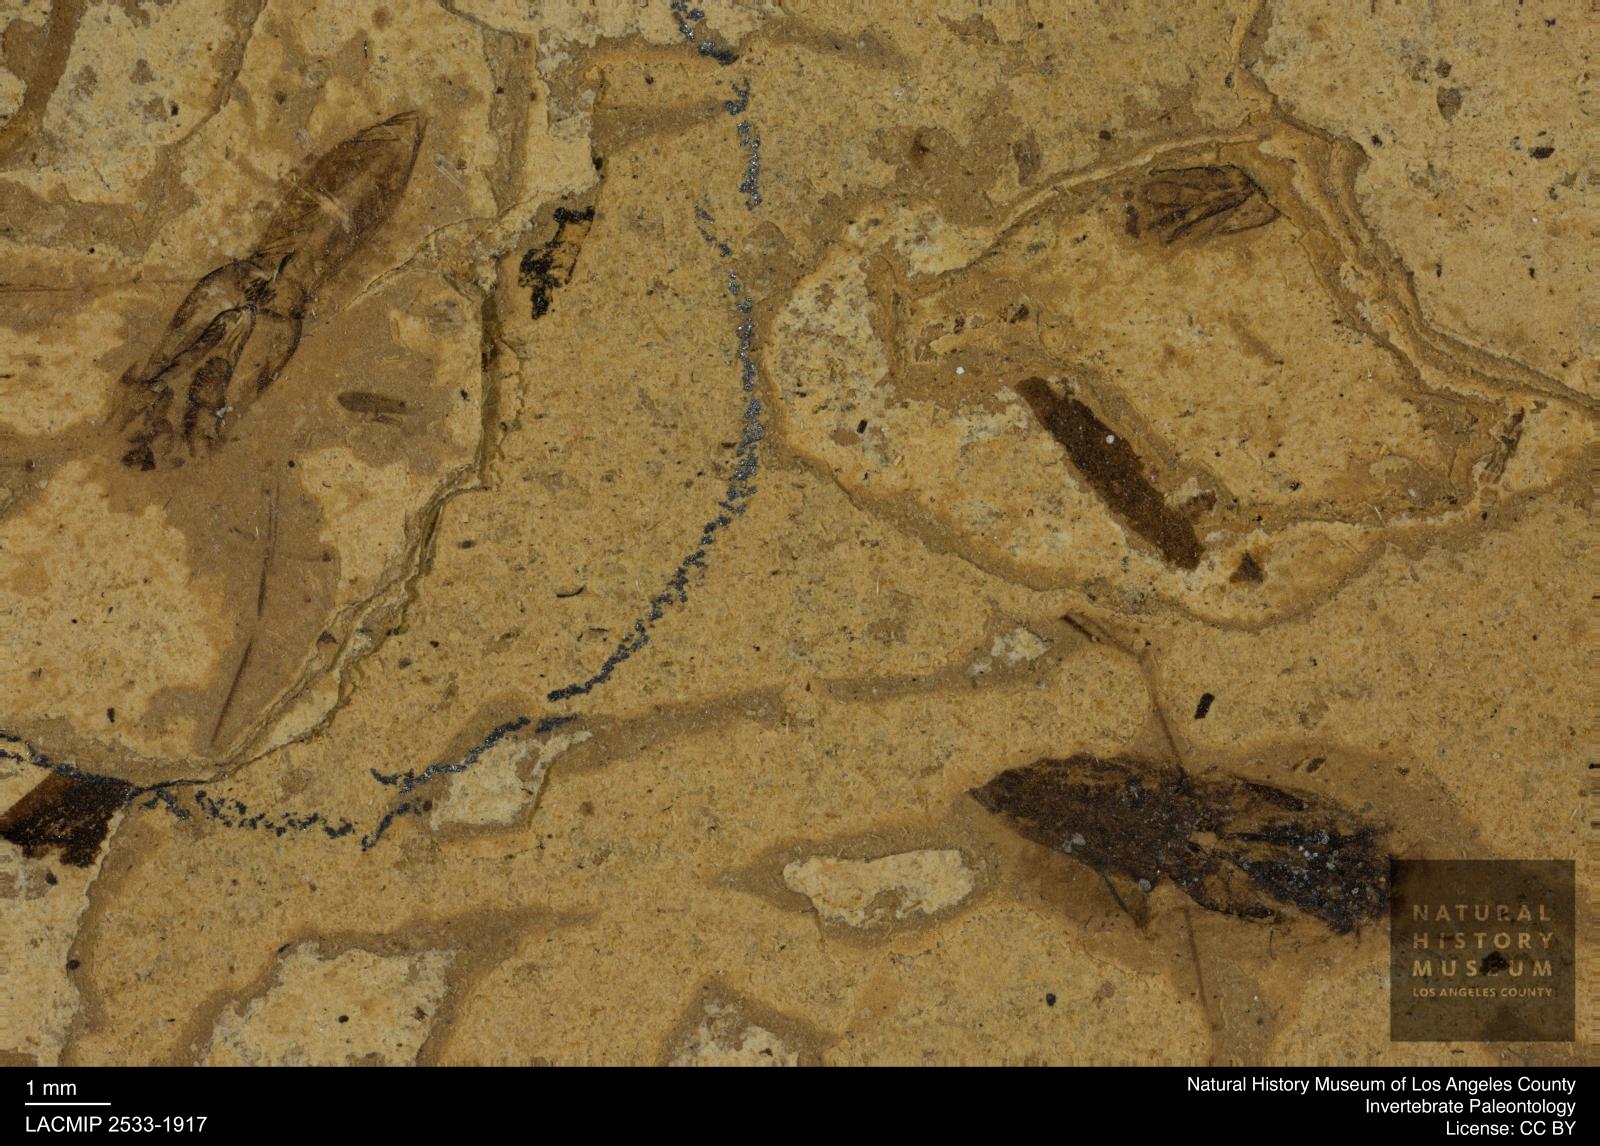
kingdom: Animalia
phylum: Arthropoda
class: Insecta
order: Hemiptera
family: Notonectidae
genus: Notonecta
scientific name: Notonecta
